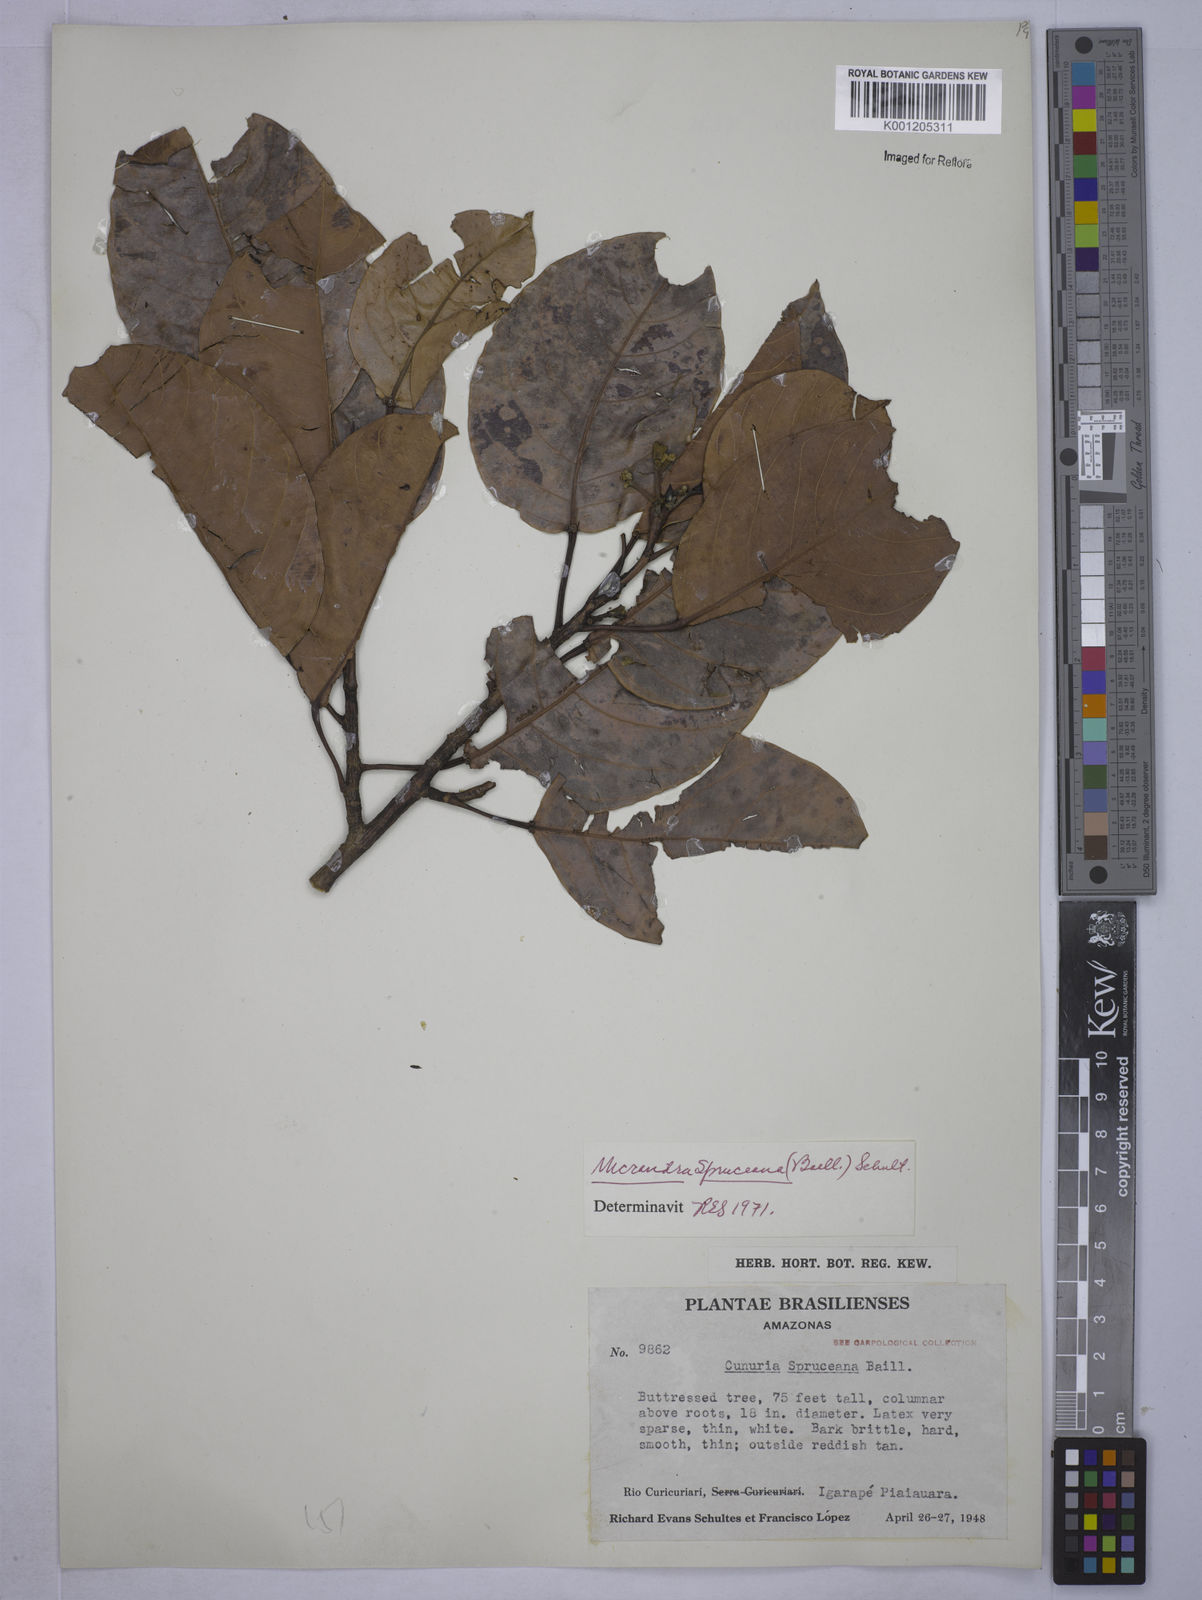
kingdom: Plantae
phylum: Tracheophyta
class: Magnoliopsida
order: Malpighiales
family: Euphorbiaceae
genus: Micrandra
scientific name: Micrandra spruceana
